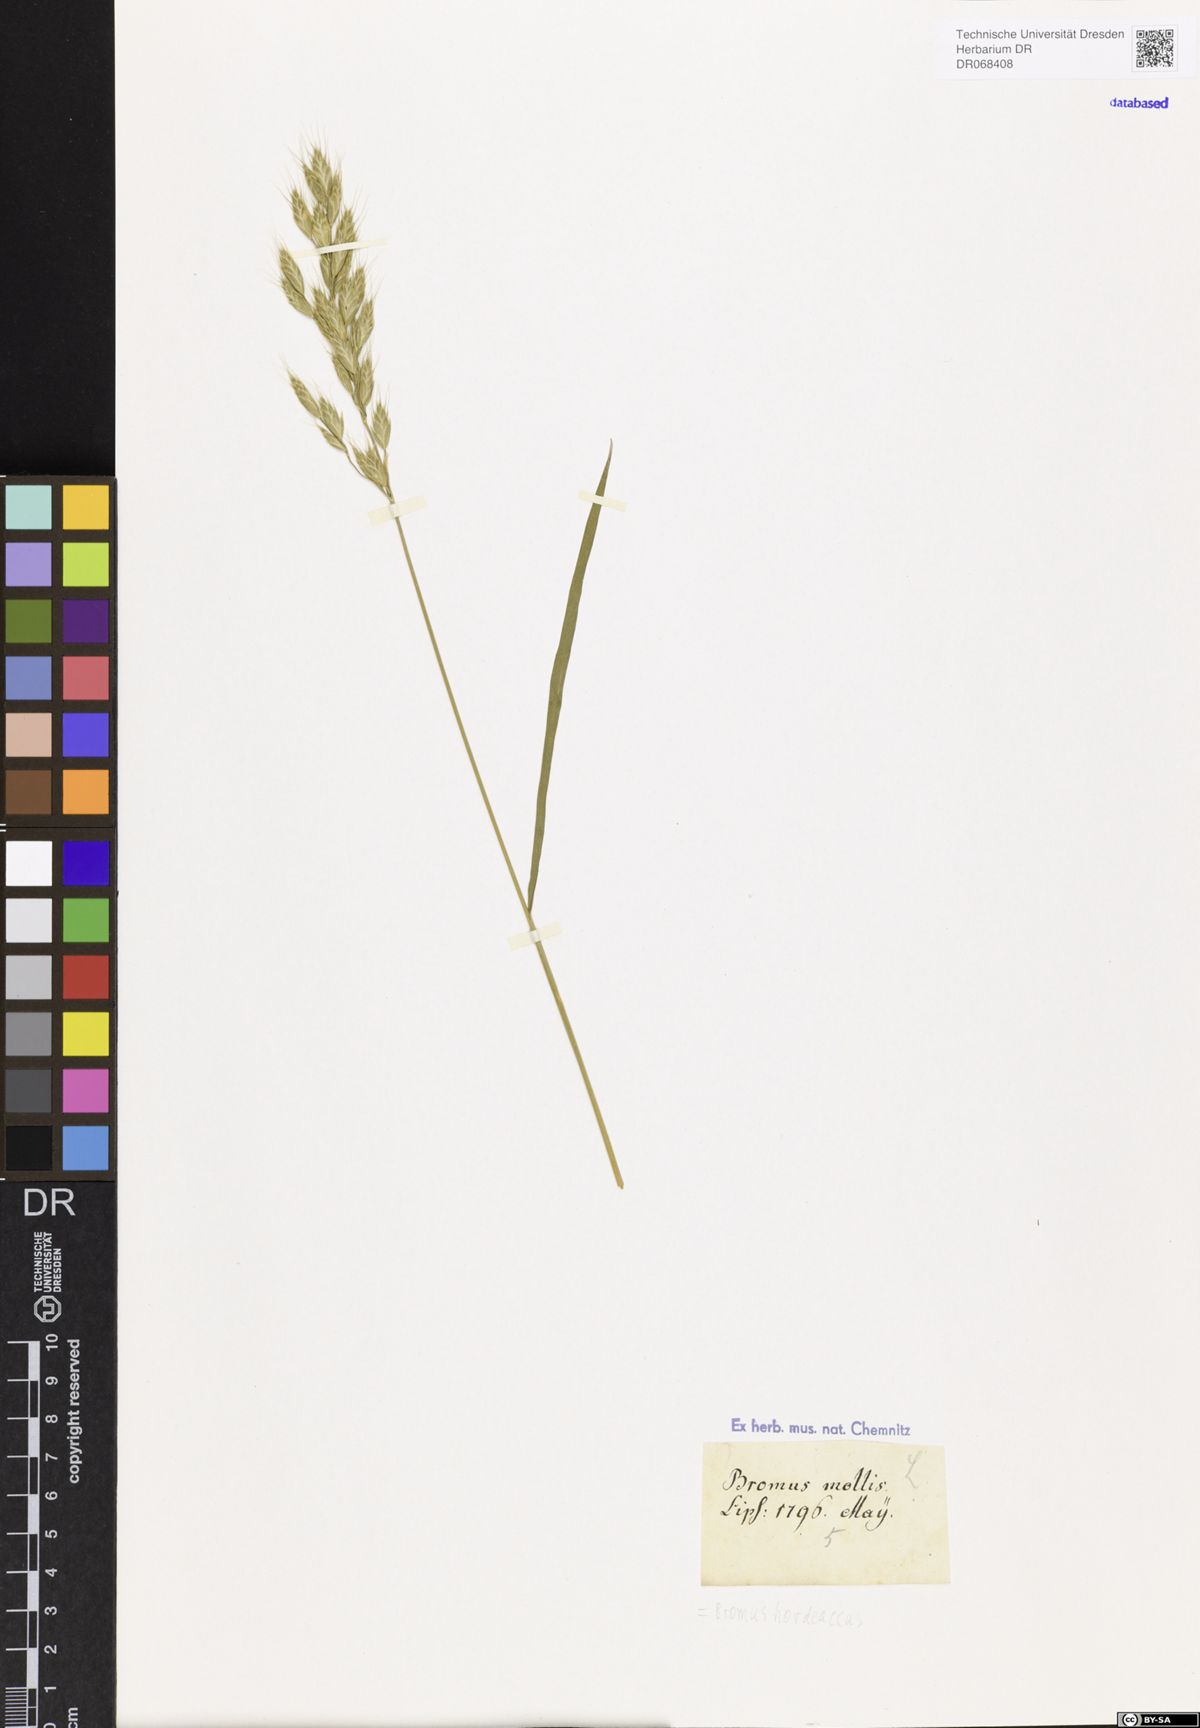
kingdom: Plantae
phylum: Tracheophyta
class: Liliopsida
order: Poales
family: Poaceae
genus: Bromus
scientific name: Bromus hordeaceus
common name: Soft brome
